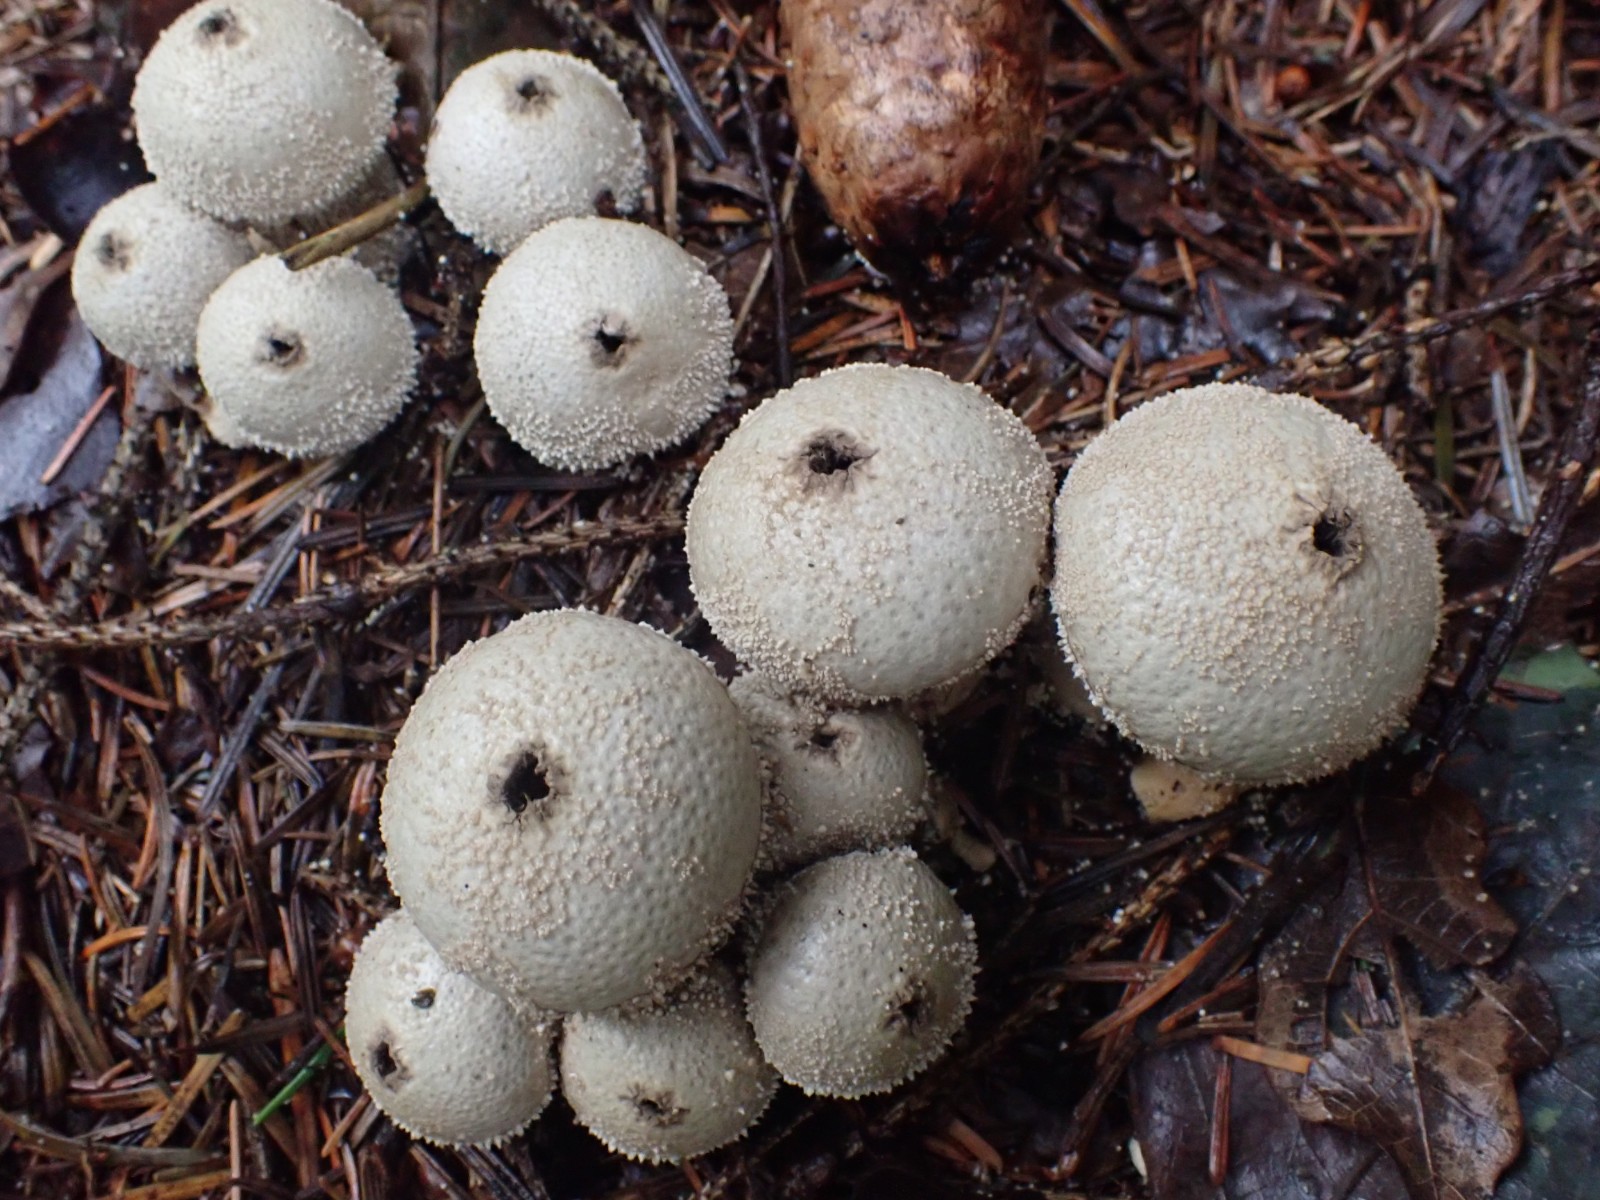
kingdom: Fungi
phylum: Basidiomycota
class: Agaricomycetes
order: Agaricales
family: Lycoperdaceae
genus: Lycoperdon
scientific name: Lycoperdon perlatum
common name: krystal-støvbold
